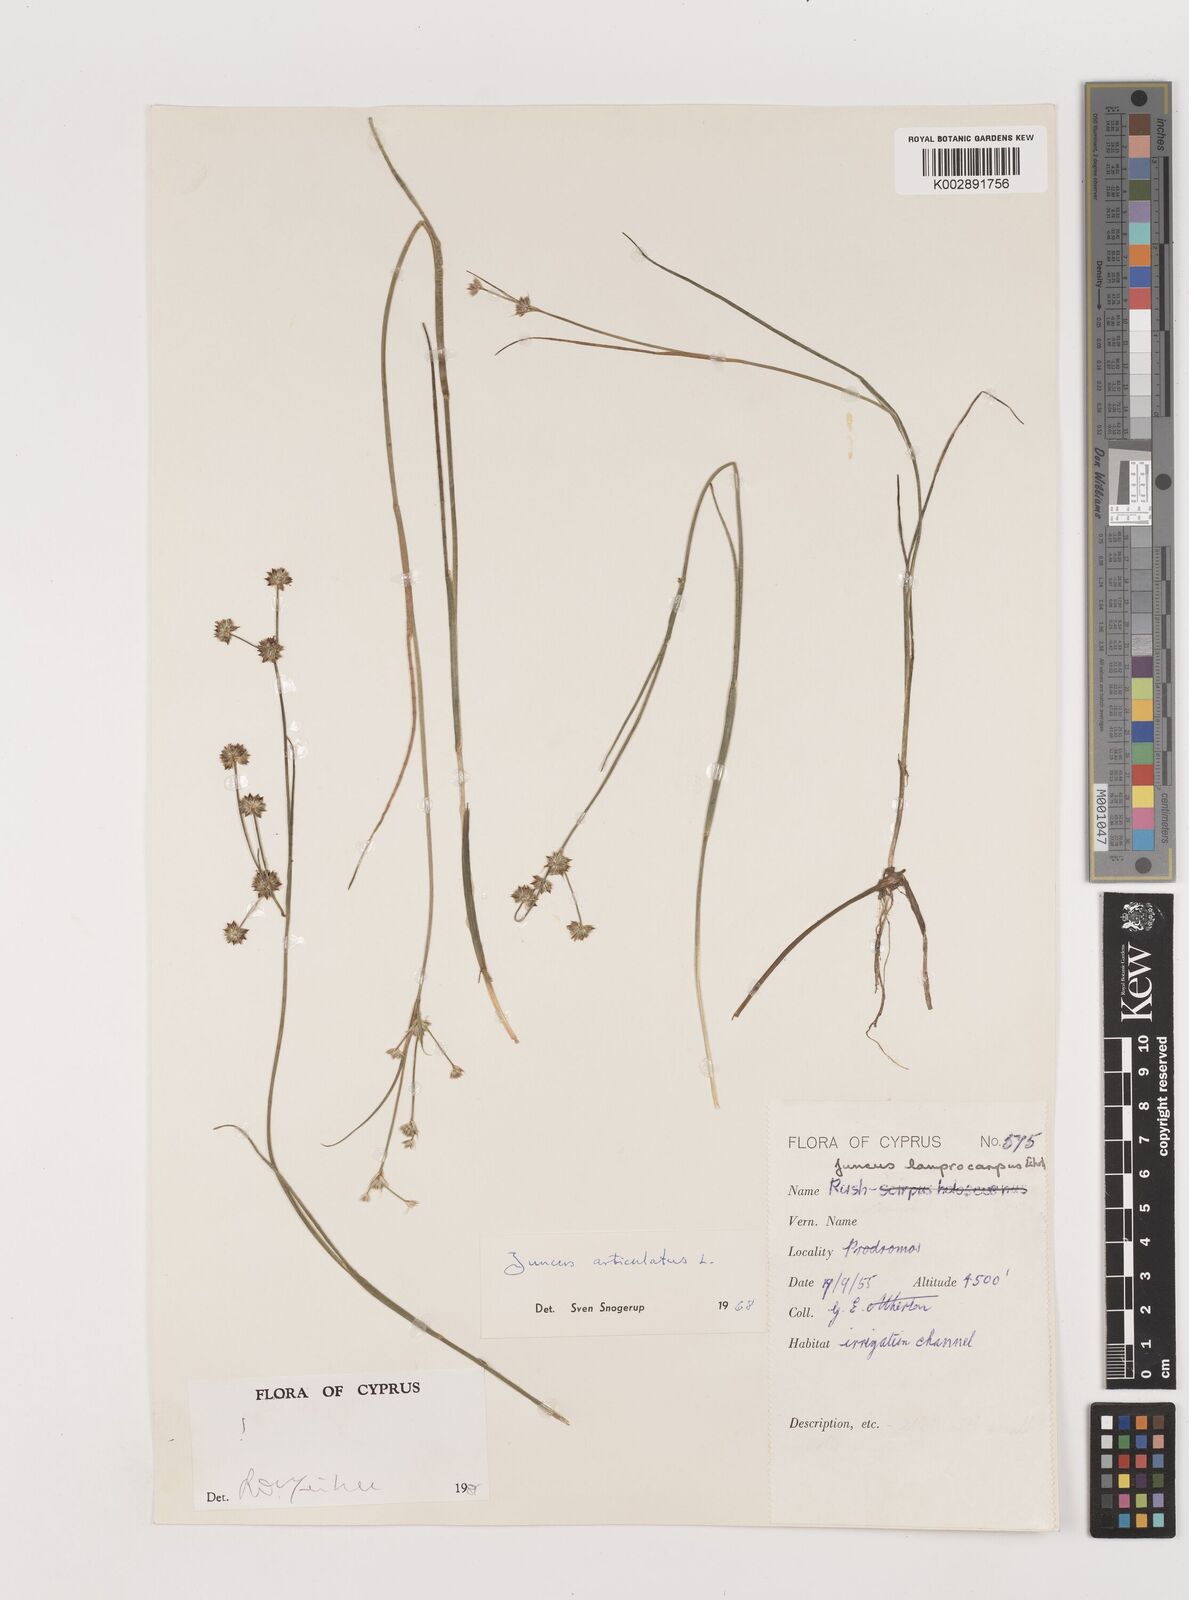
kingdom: Plantae
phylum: Tracheophyta
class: Liliopsida
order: Poales
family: Juncaceae
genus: Juncus
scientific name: Juncus articulatus
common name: Jointed rush
